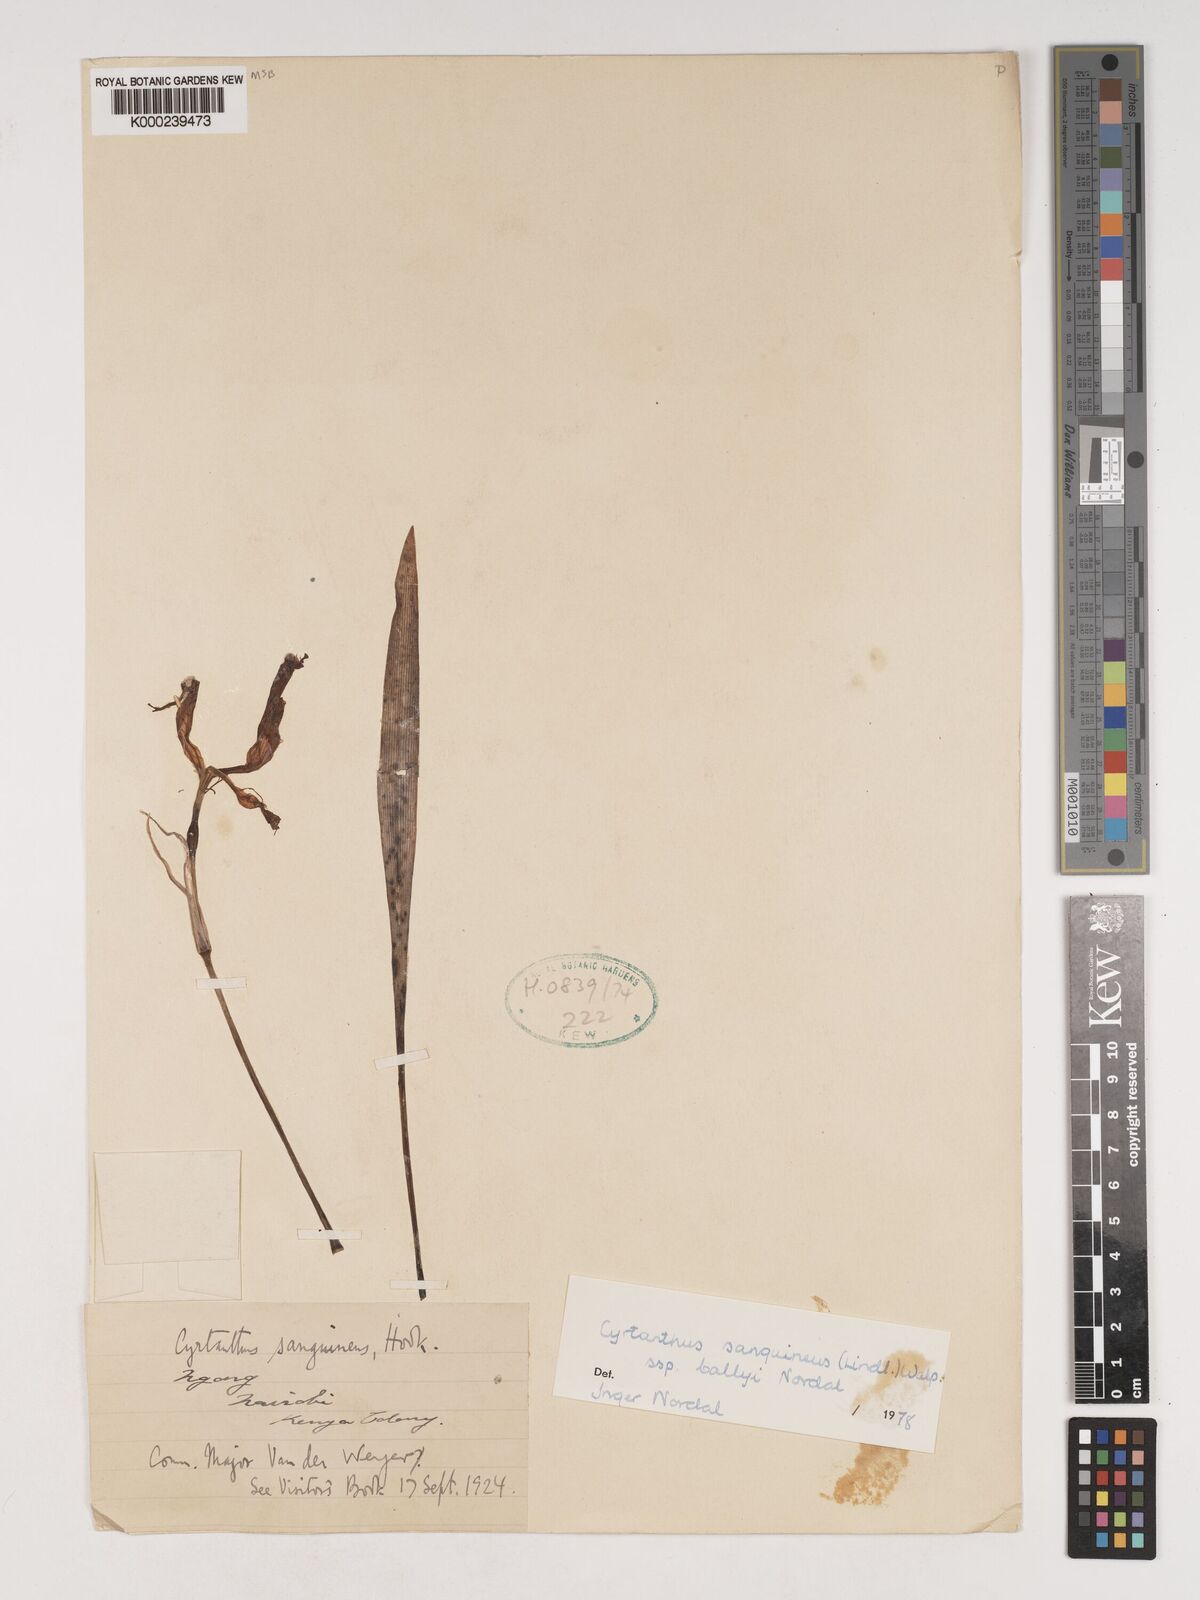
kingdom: Plantae
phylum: Tracheophyta
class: Liliopsida
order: Asparagales
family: Amaryllidaceae
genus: Cyrtanthus
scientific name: Cyrtanthus sanguineus
